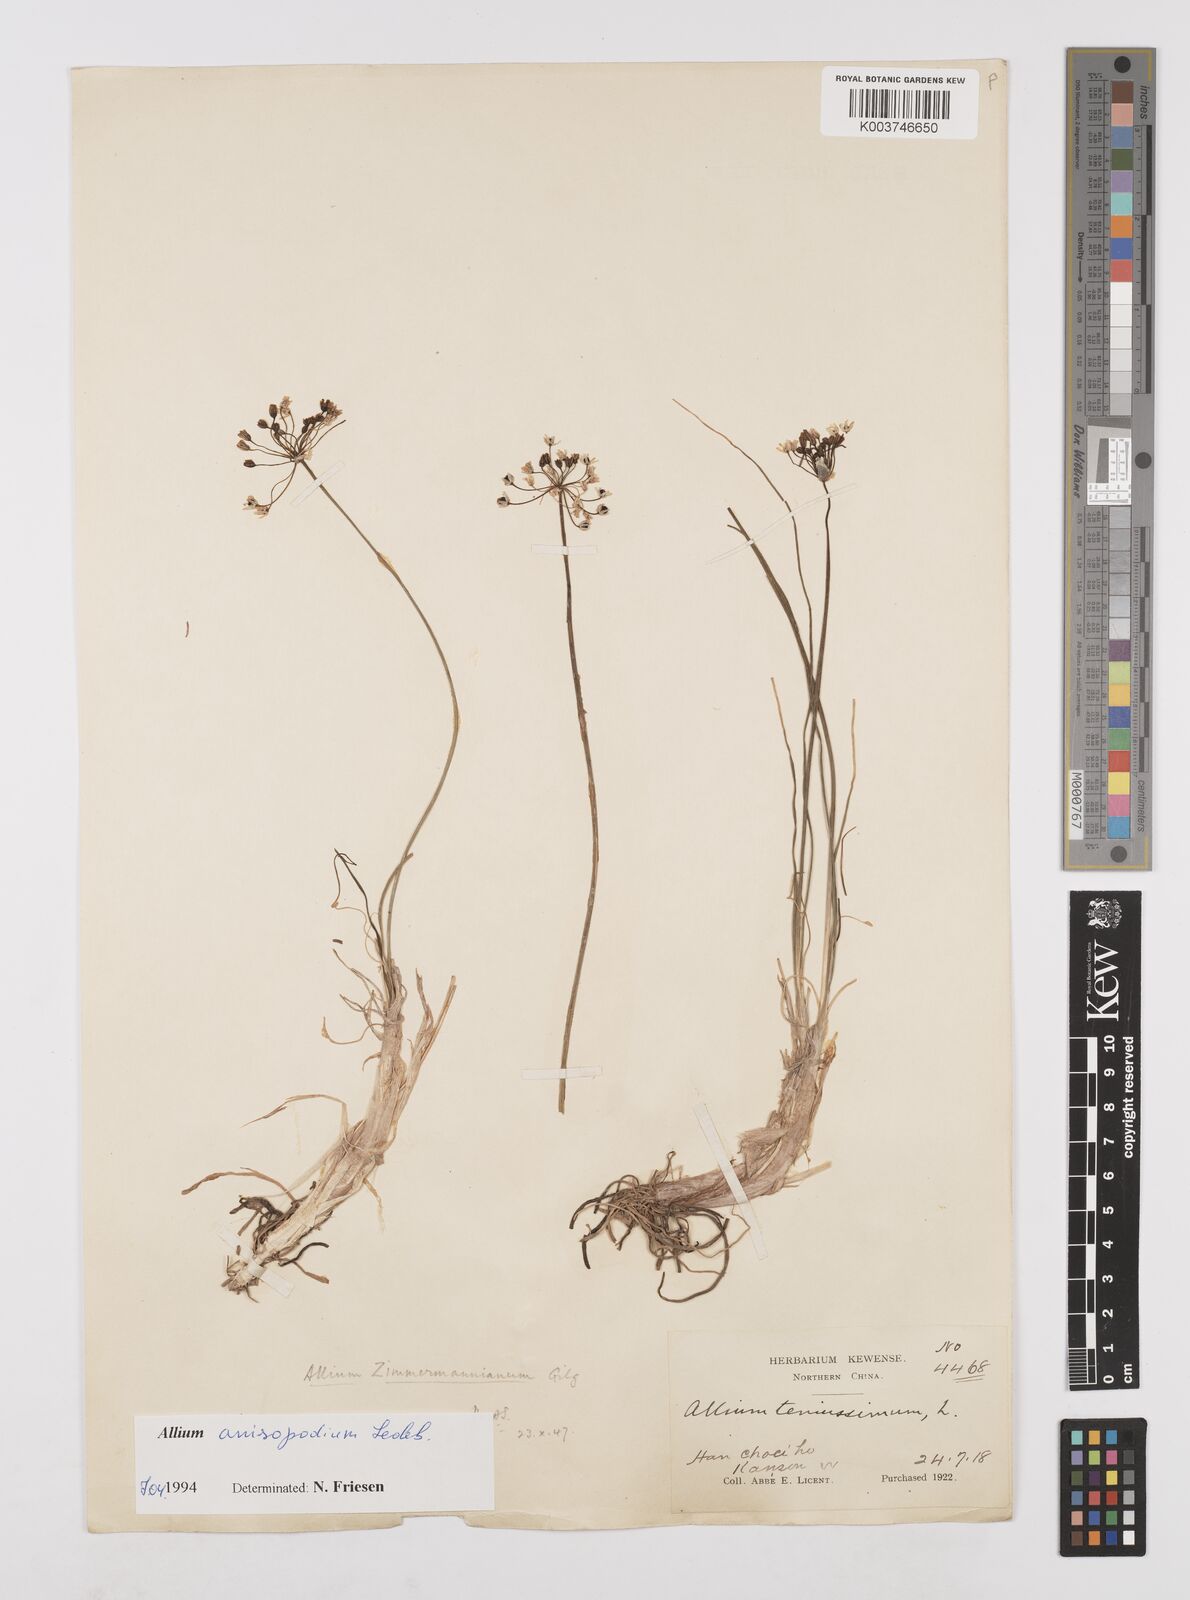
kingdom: Plantae
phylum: Tracheophyta
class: Liliopsida
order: Asparagales
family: Amaryllidaceae
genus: Allium
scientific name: Allium anisopodium
